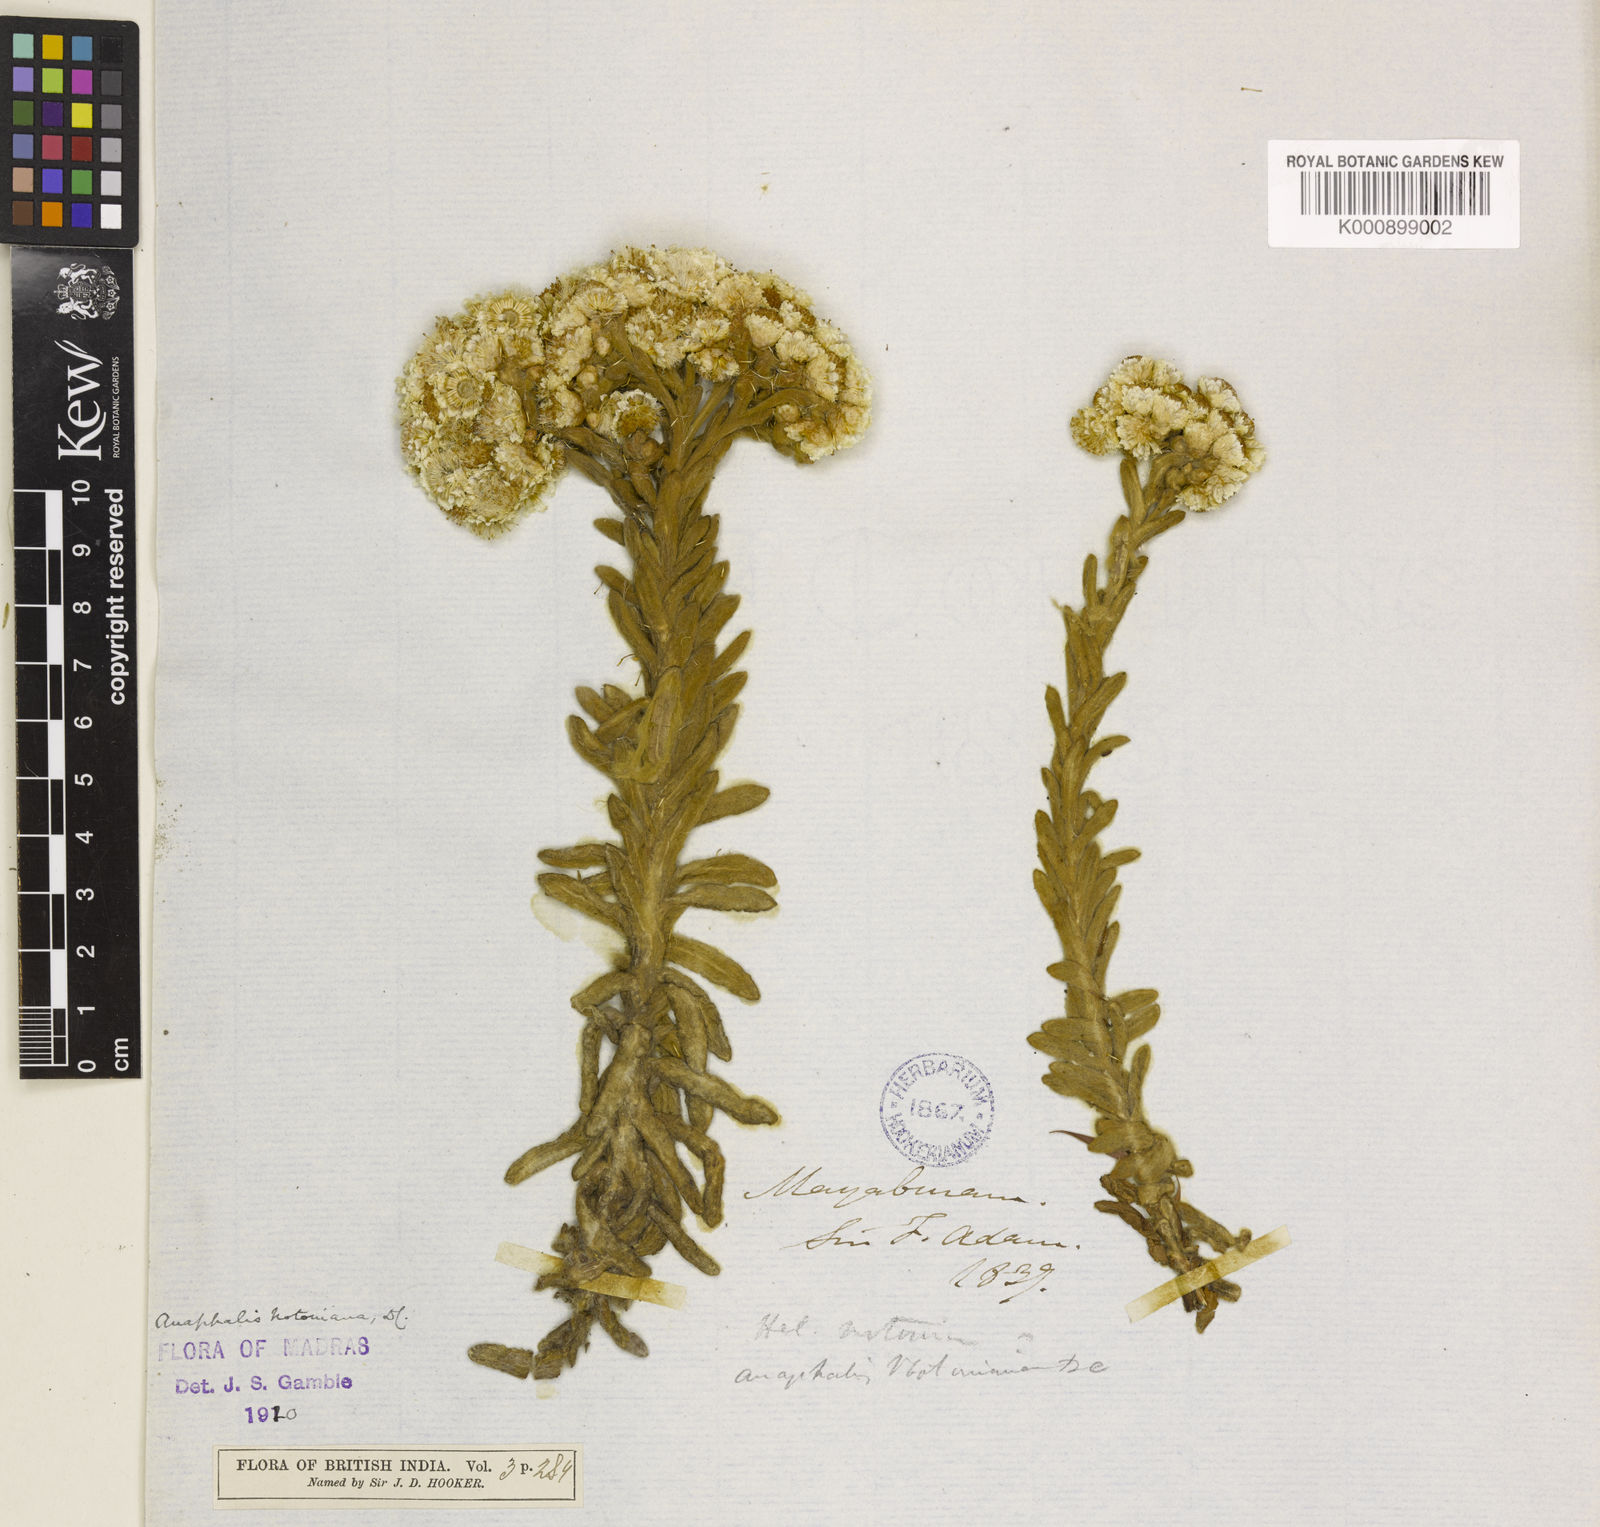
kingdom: Plantae
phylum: Tracheophyta
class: Magnoliopsida
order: Asterales
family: Asteraceae
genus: Anaphalis
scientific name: Anaphalis notoniana
